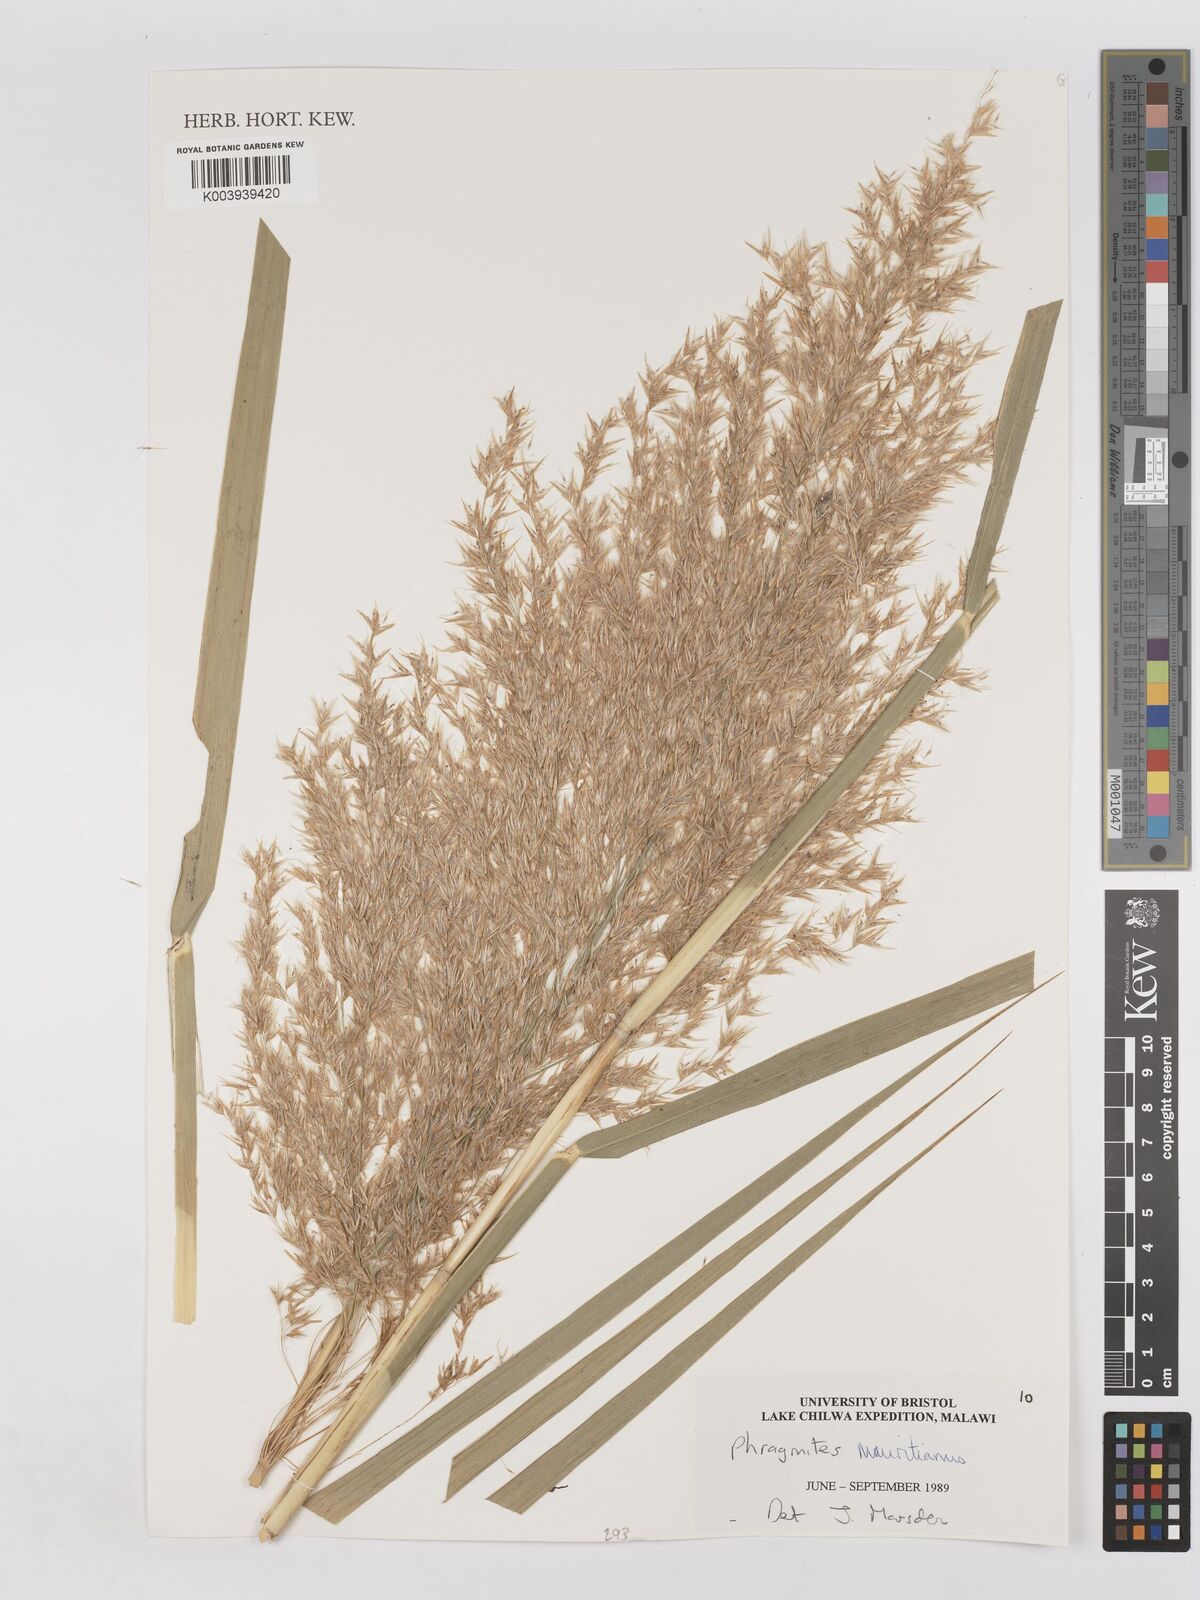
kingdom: Plantae
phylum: Tracheophyta
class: Liliopsida
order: Poales
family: Poaceae
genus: Phragmites
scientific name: Phragmites mauritianus
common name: Reed grass
